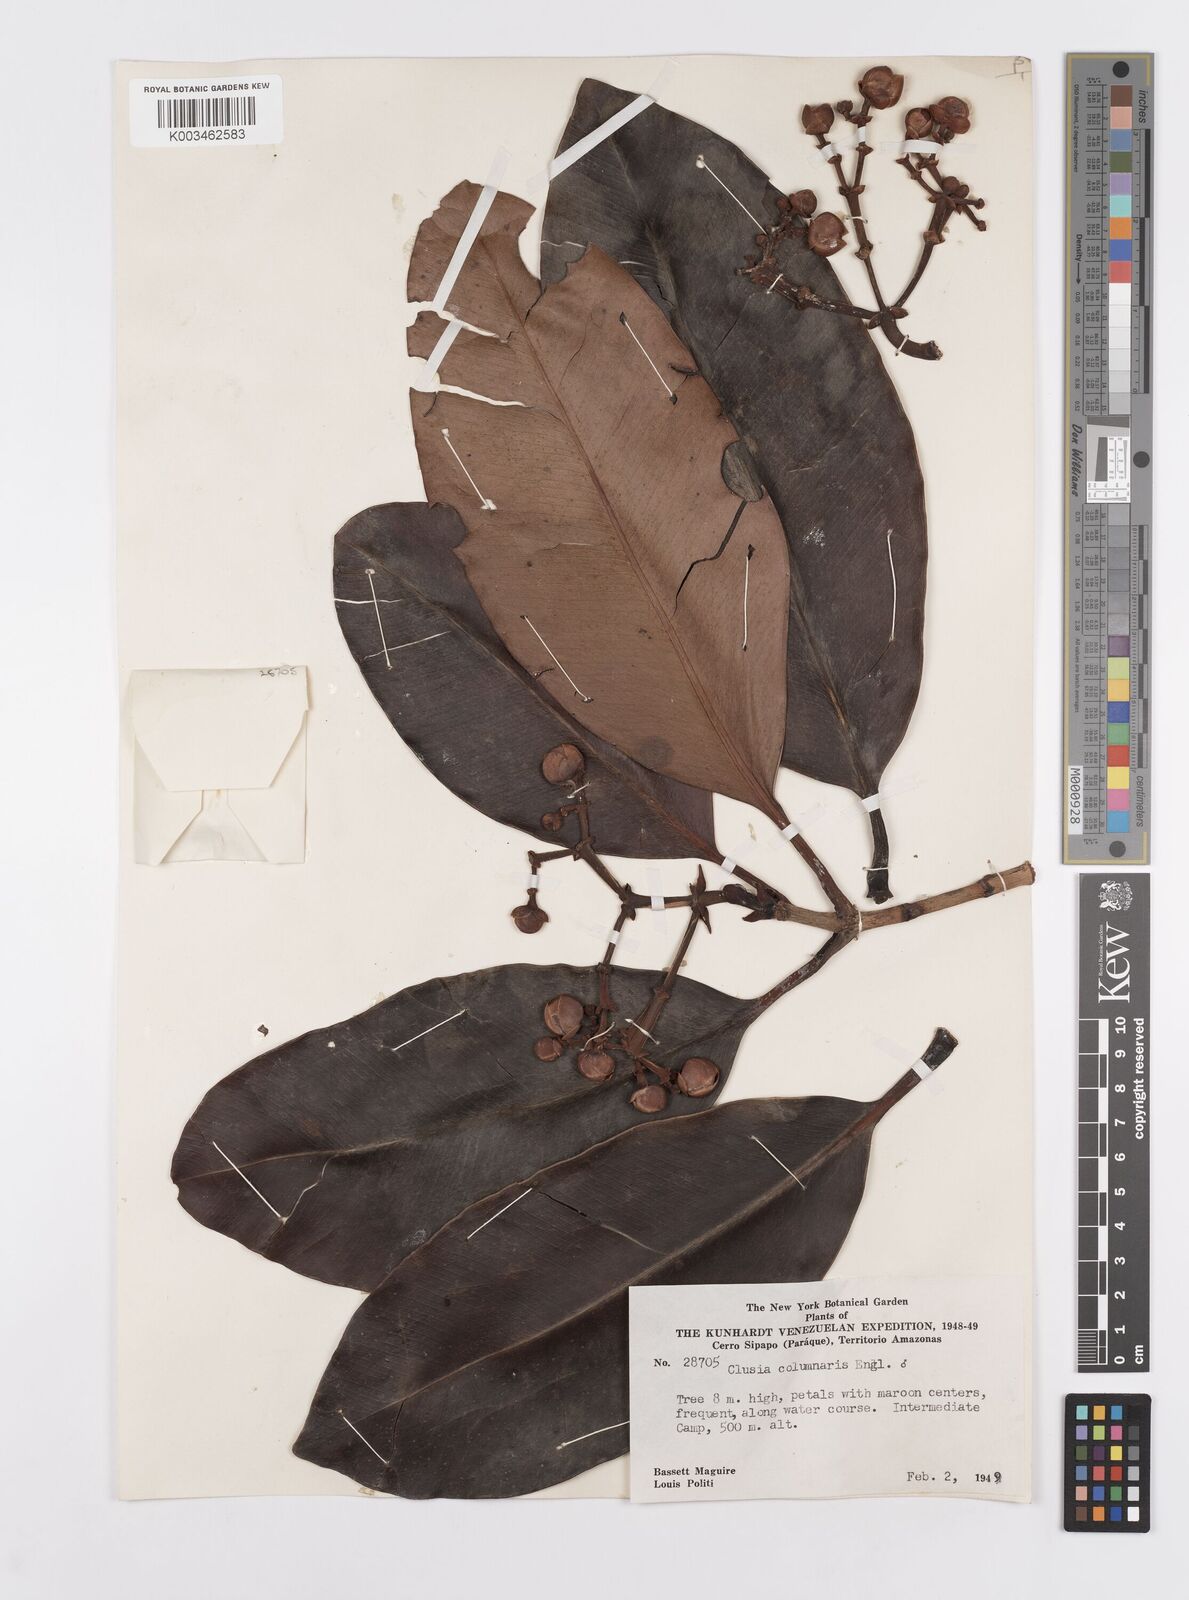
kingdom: Plantae
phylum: Tracheophyta
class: Magnoliopsida
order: Malpighiales
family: Clusiaceae
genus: Clusia
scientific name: Clusia columnaris
